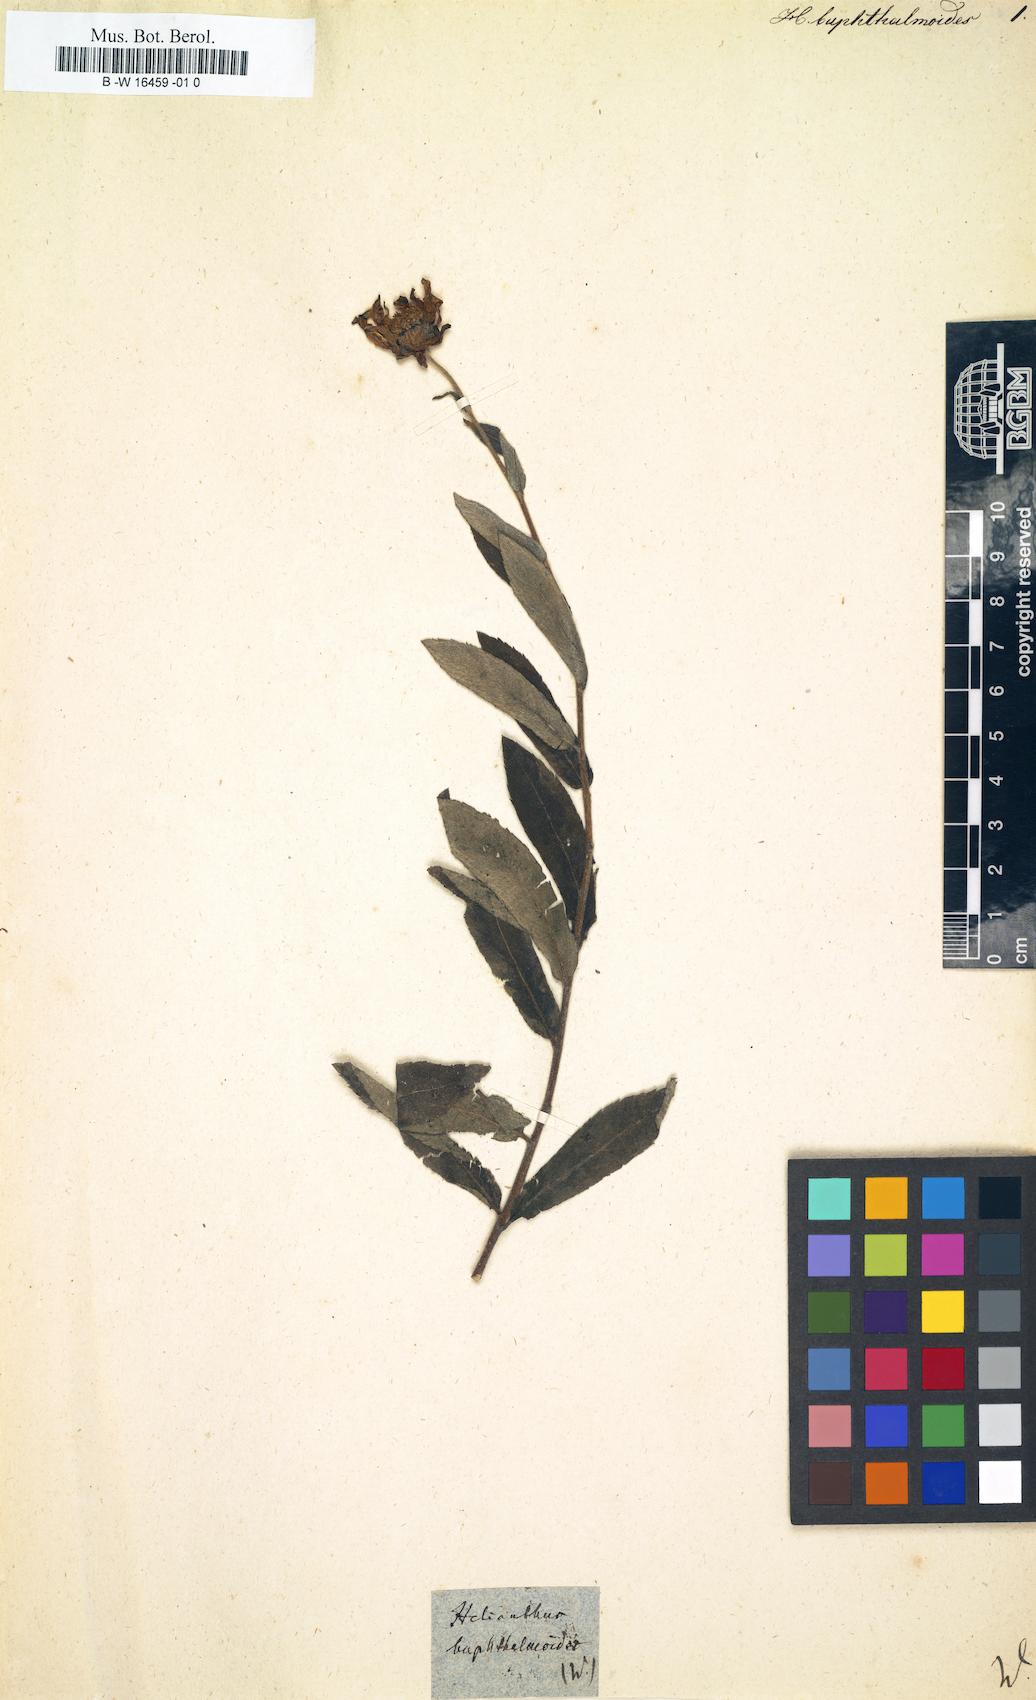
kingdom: Plantae
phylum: Tracheophyta
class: Magnoliopsida
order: Asterales
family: Asteraceae
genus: Heliopsis
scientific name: Heliopsis buphthalmoides
